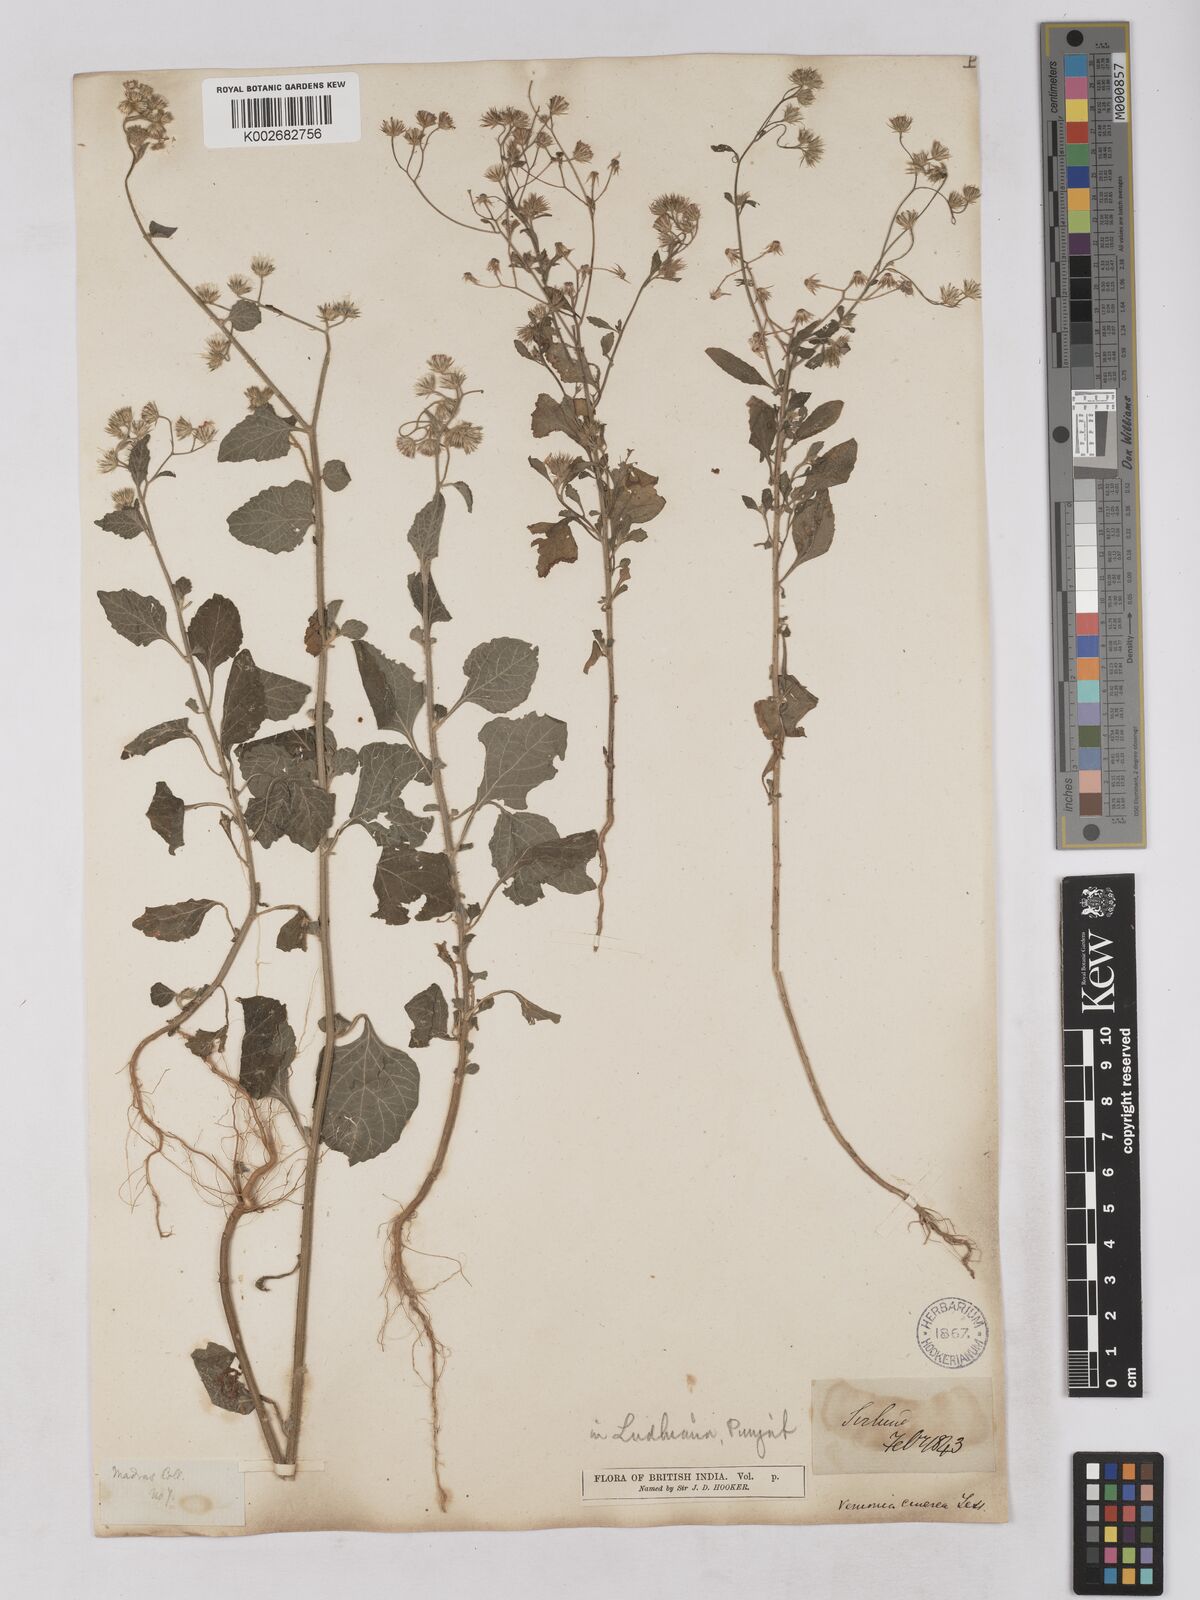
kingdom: Plantae
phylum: Tracheophyta
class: Magnoliopsida
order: Asterales
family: Asteraceae
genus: Cyanthillium
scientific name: Cyanthillium cinereum
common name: Little ironweed
